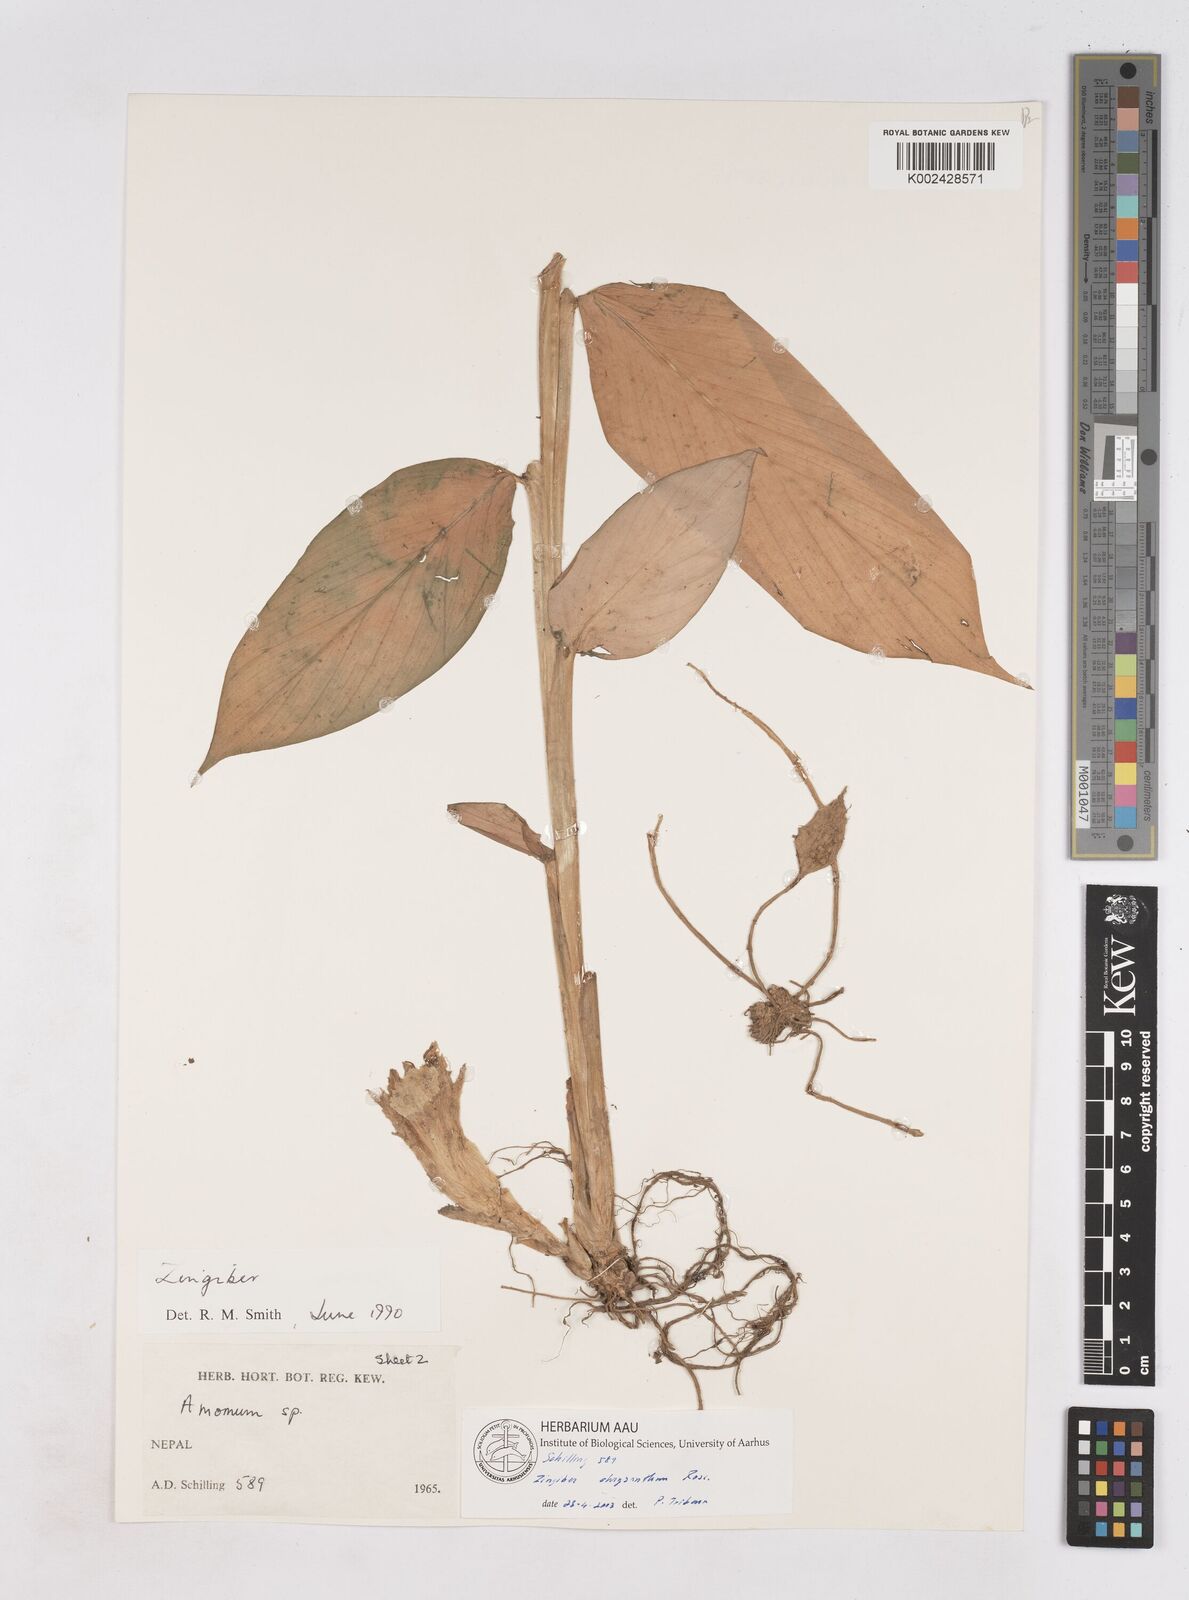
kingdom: Plantae
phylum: Tracheophyta
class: Liliopsida
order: Zingiberales
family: Zingiberaceae
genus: Zingiber
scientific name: Zingiber chrysanthum
